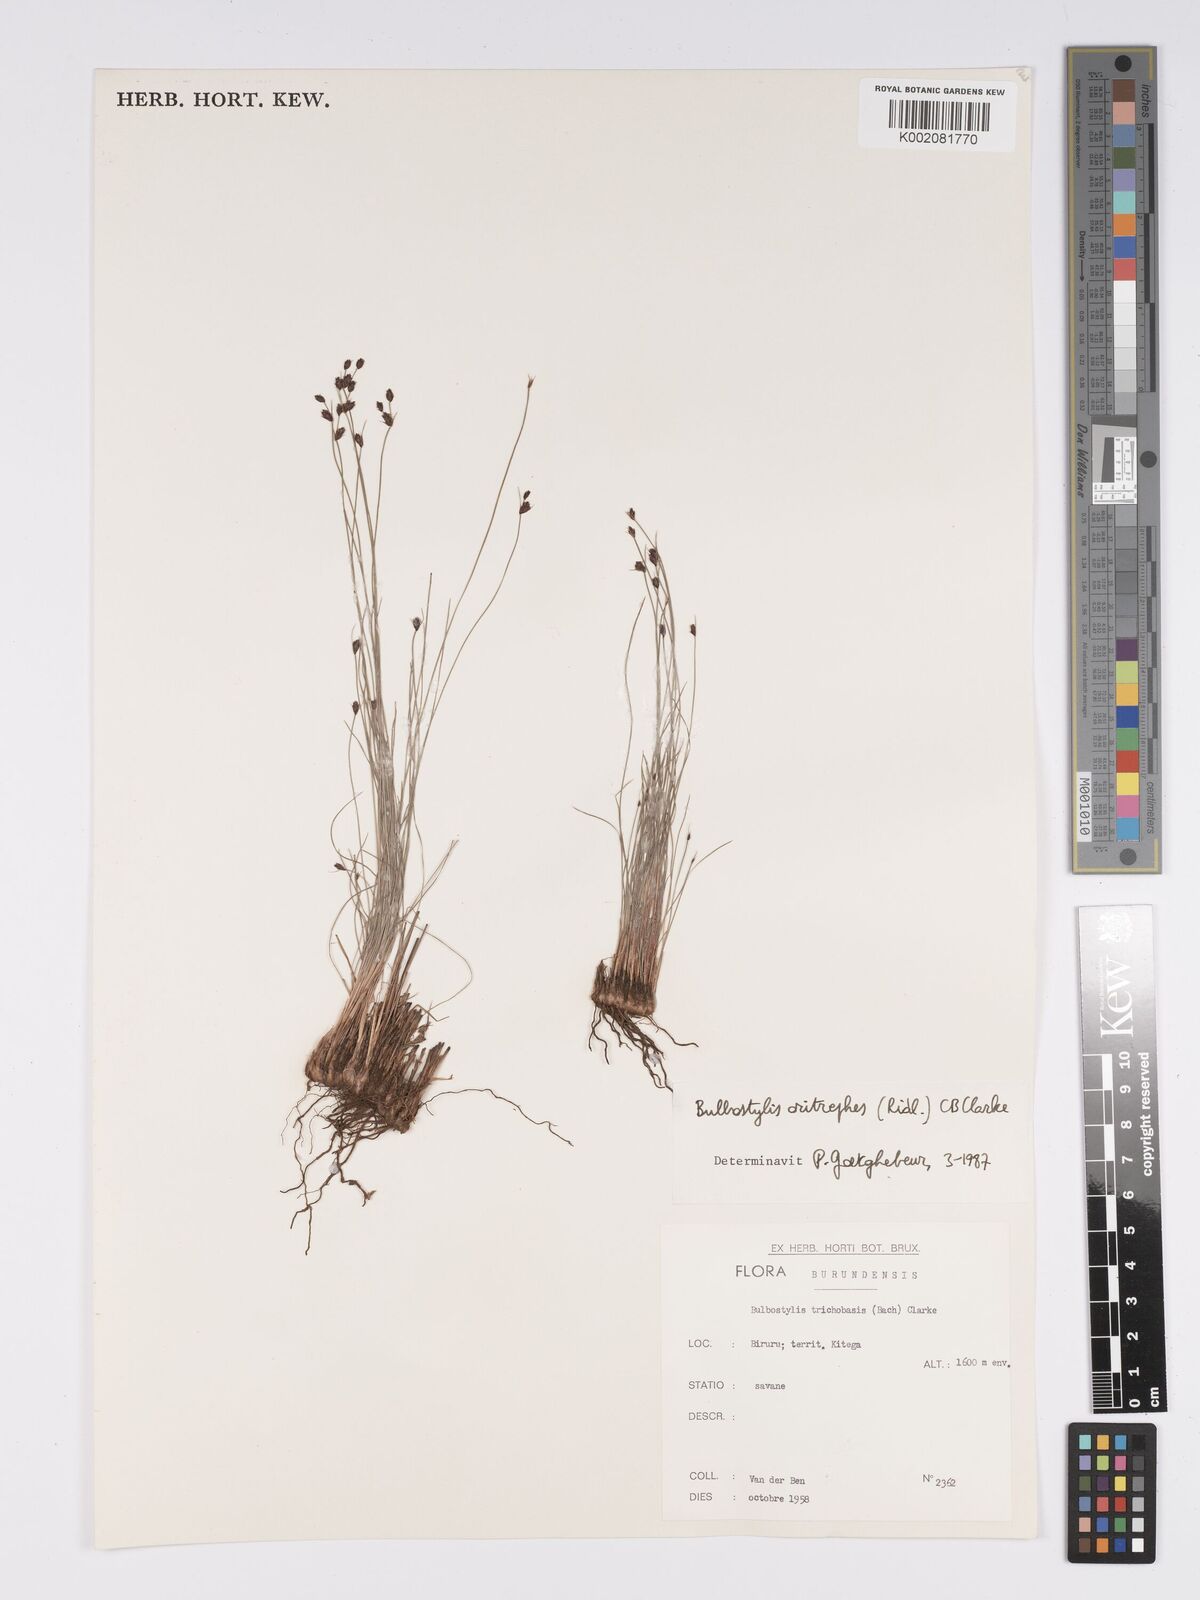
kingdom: Plantae
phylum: Tracheophyta
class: Liliopsida
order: Poales
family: Cyperaceae
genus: Bulbostylis
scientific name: Bulbostylis oritrephes
